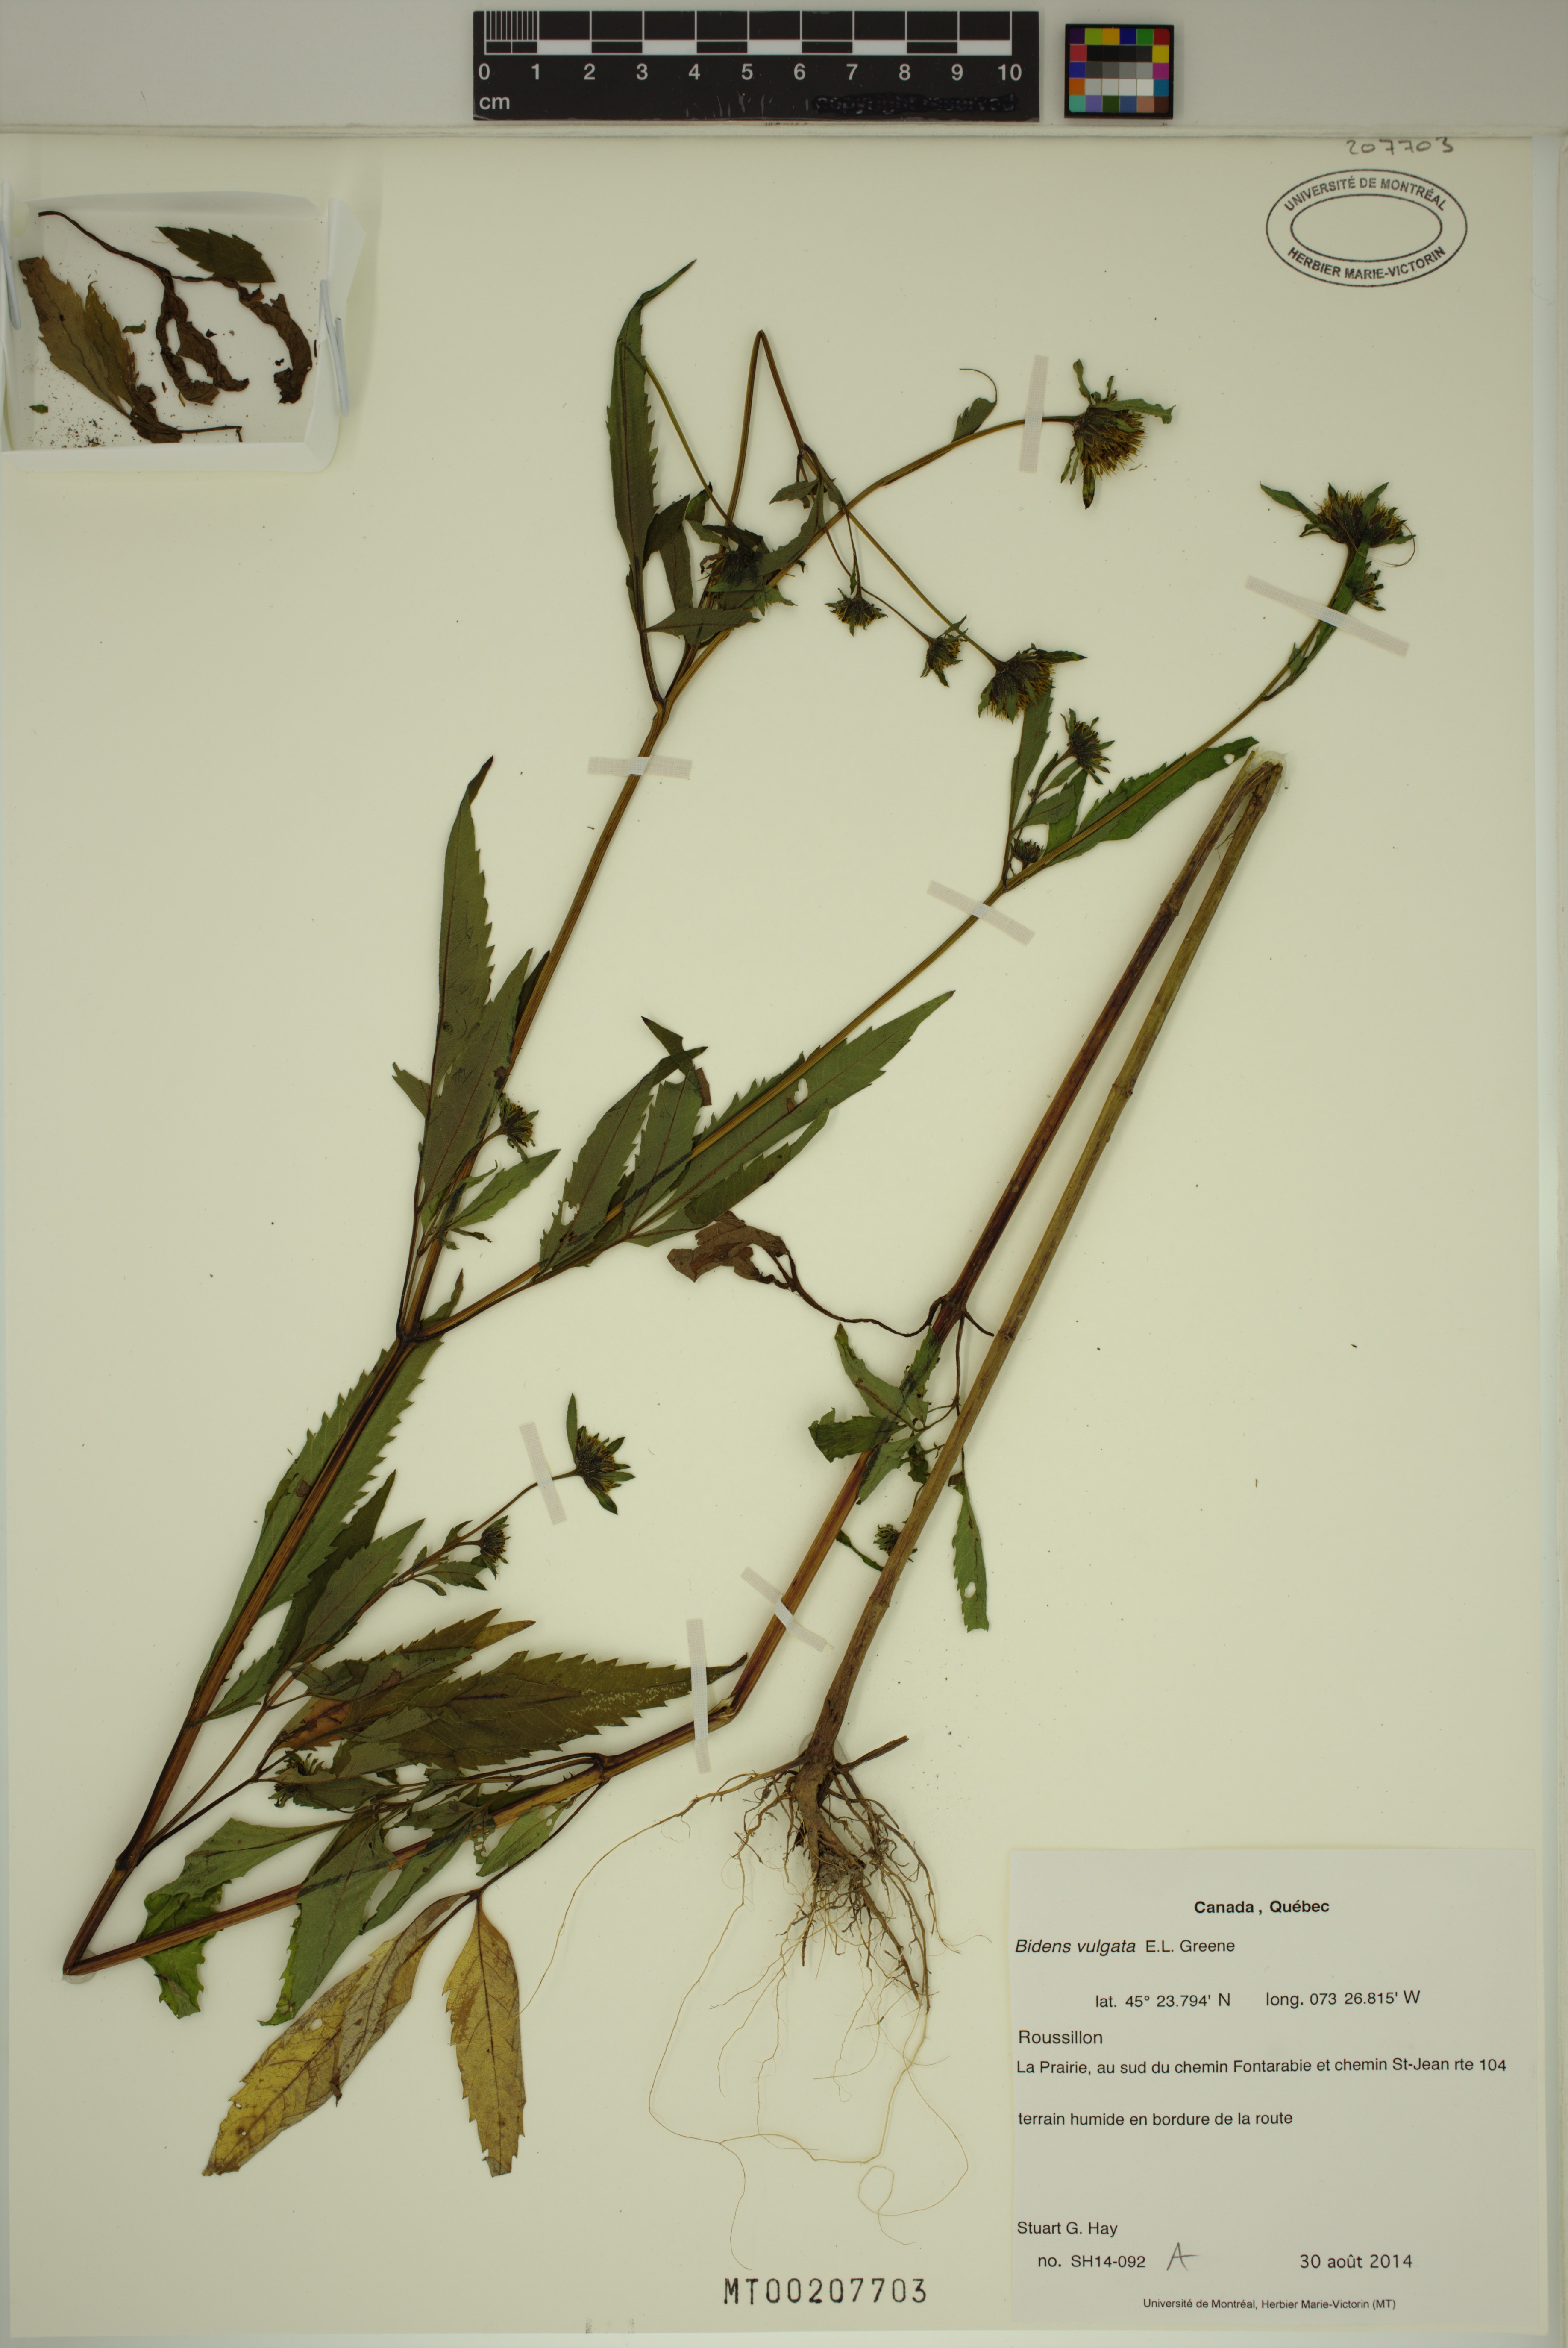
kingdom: Plantae
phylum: Tracheophyta
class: Magnoliopsida
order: Asterales
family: Asteraceae
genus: Bidens
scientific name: Bidens vulgata
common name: Tall beggarticks
